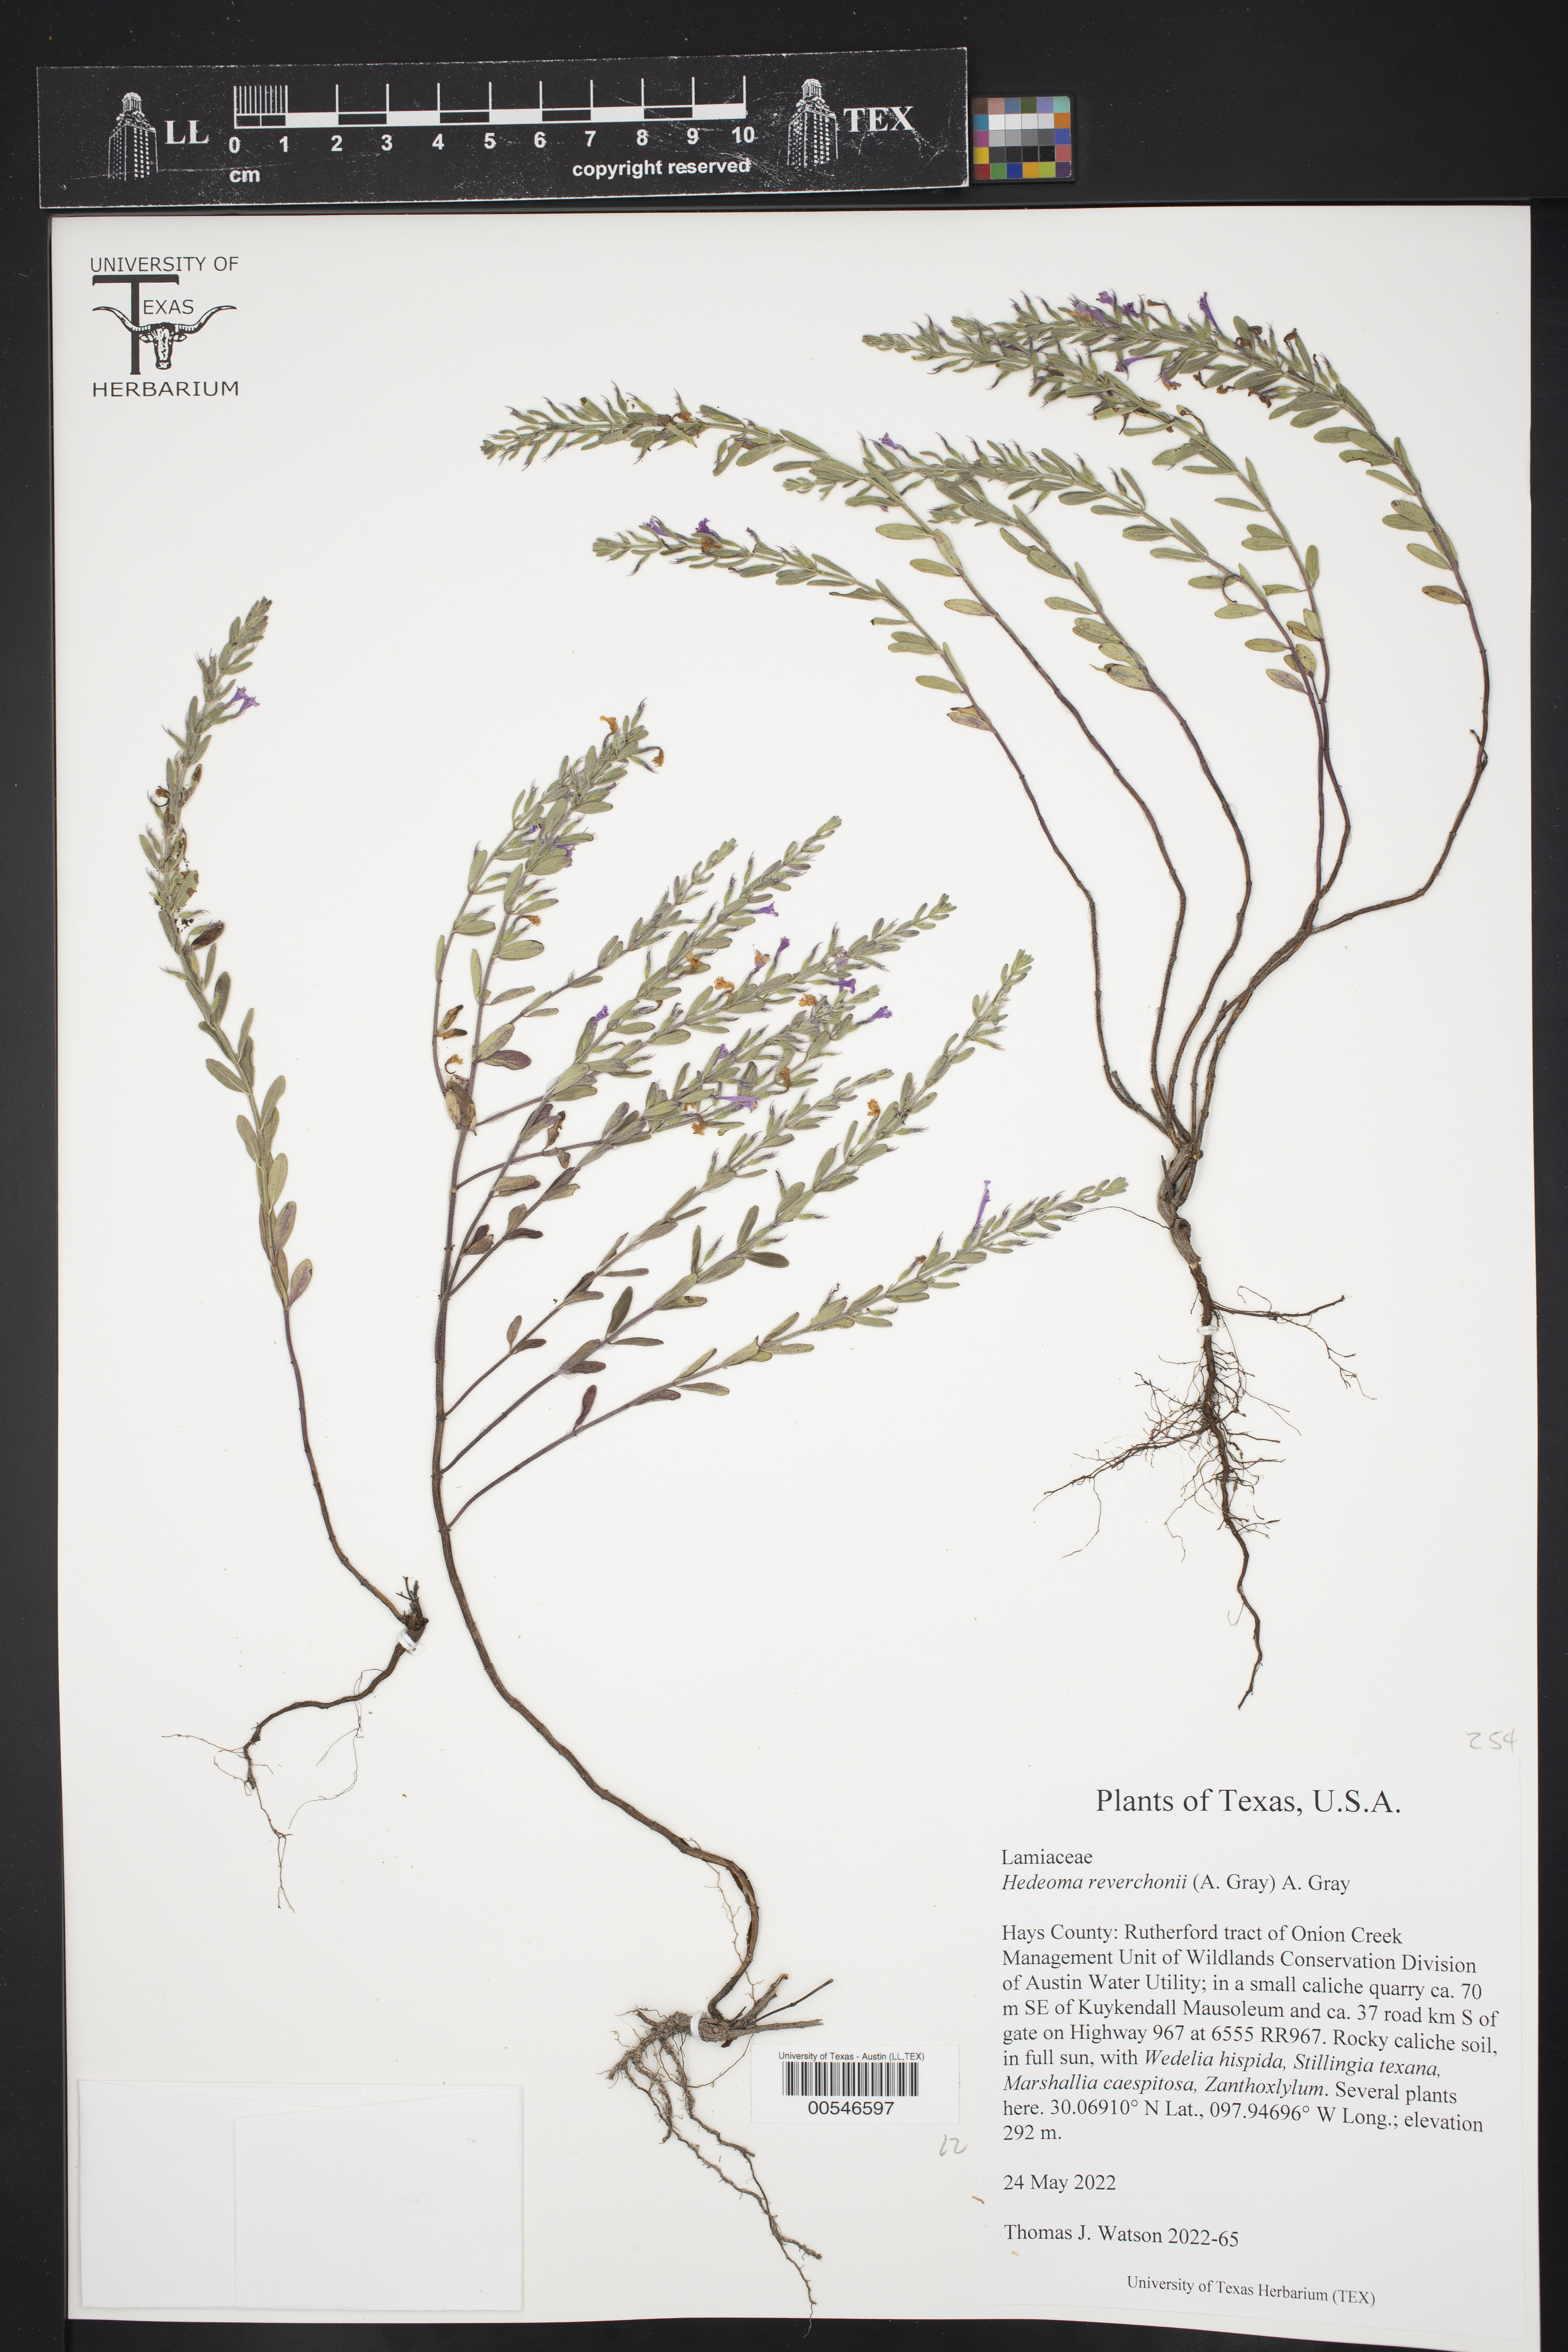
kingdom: Plantae
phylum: Tracheophyta
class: Magnoliopsida
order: Lamiales
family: Lamiaceae
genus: Hedeoma
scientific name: Hedeoma reverchonii
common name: Reverchon's false penny-royal
